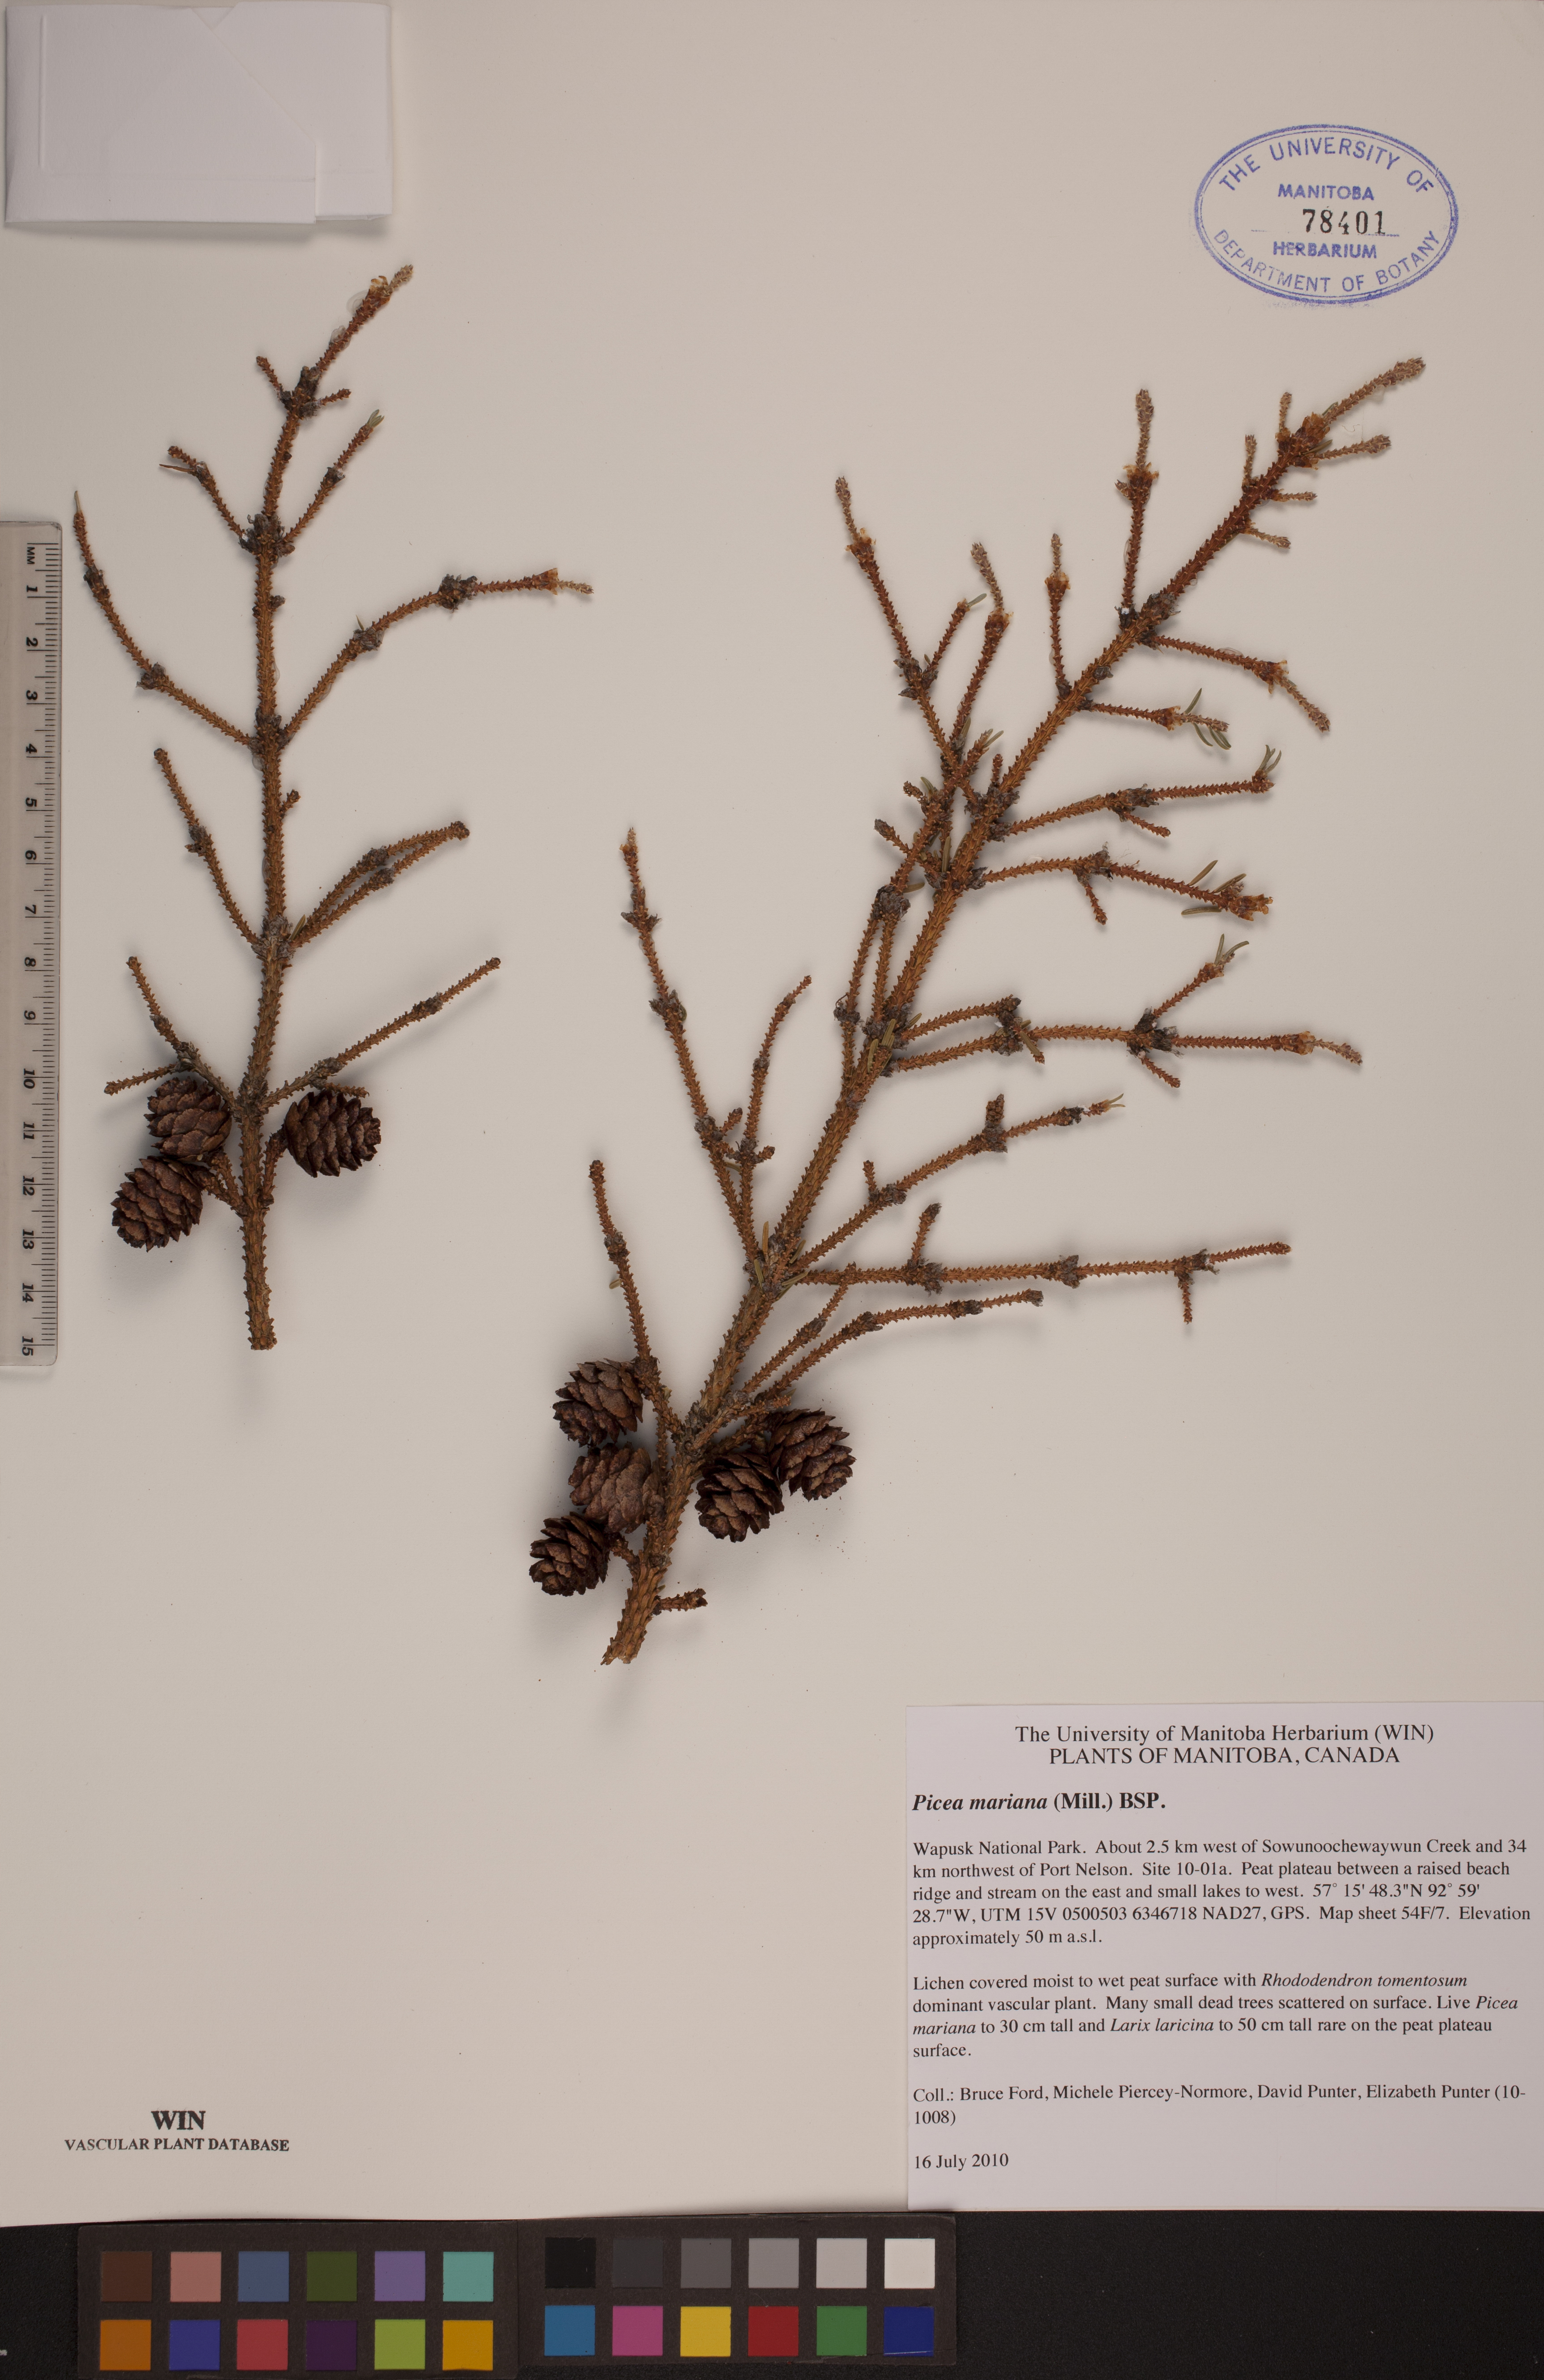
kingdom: Plantae
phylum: Tracheophyta
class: Pinopsida
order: Pinales
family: Pinaceae
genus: Picea
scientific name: Picea mariana
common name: Black spruce
